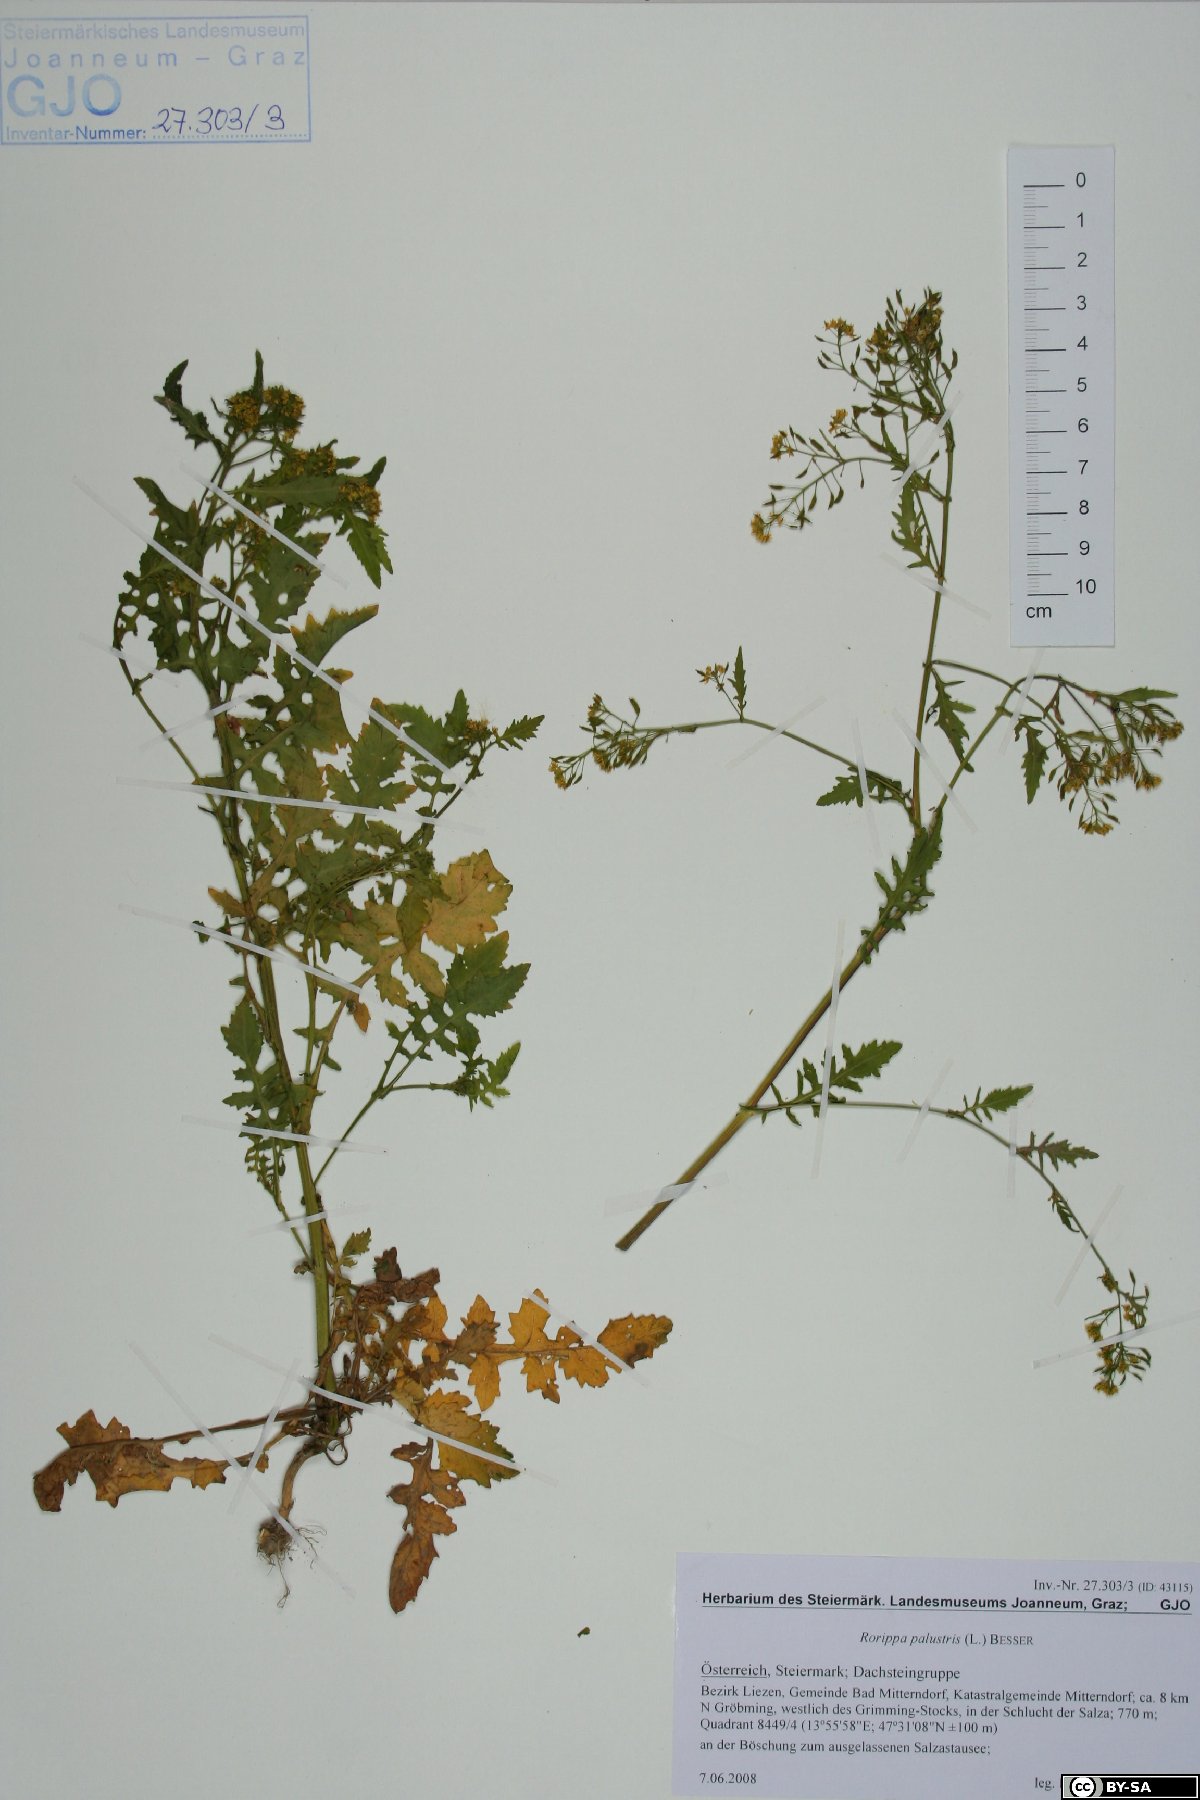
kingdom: Plantae
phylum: Tracheophyta
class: Magnoliopsida
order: Brassicales
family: Brassicaceae
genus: Rorippa
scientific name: Rorippa palustris
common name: Marsh yellow-cress
